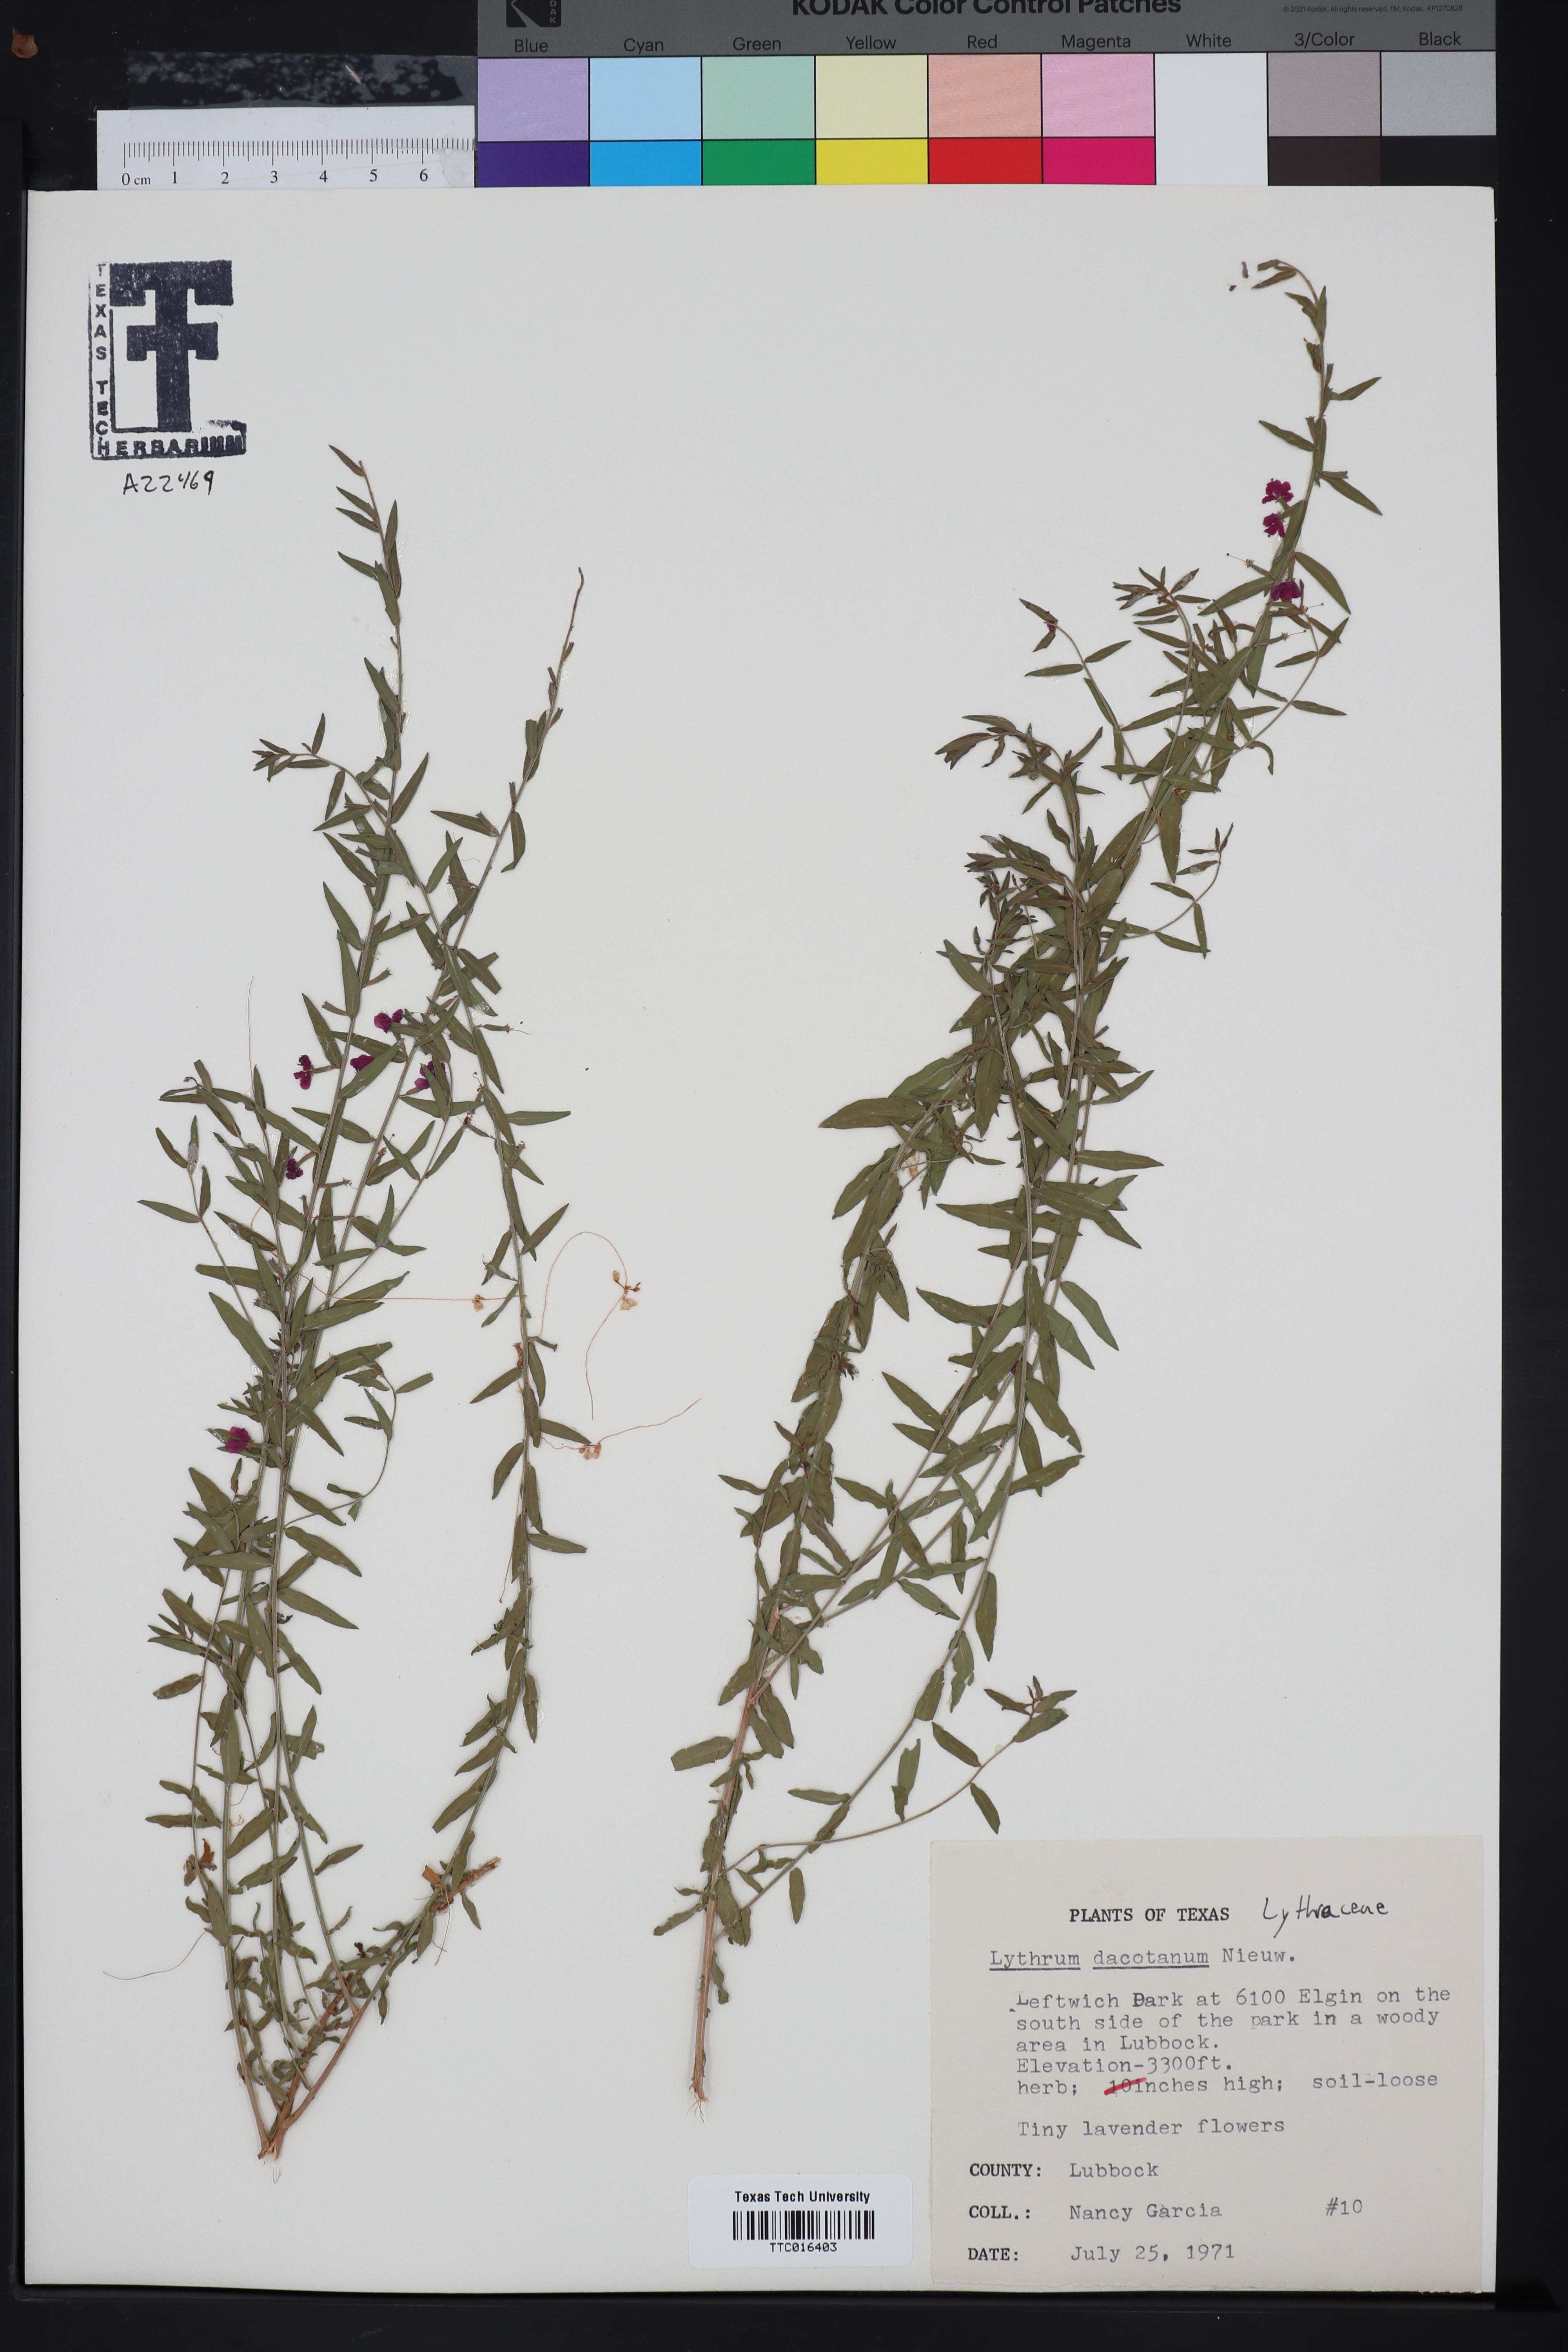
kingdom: Plantae
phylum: Tracheophyta
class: Magnoliopsida
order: Myrtales
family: Lythraceae
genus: Lythrum
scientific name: Lythrum alatum
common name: Winged loosestrife
